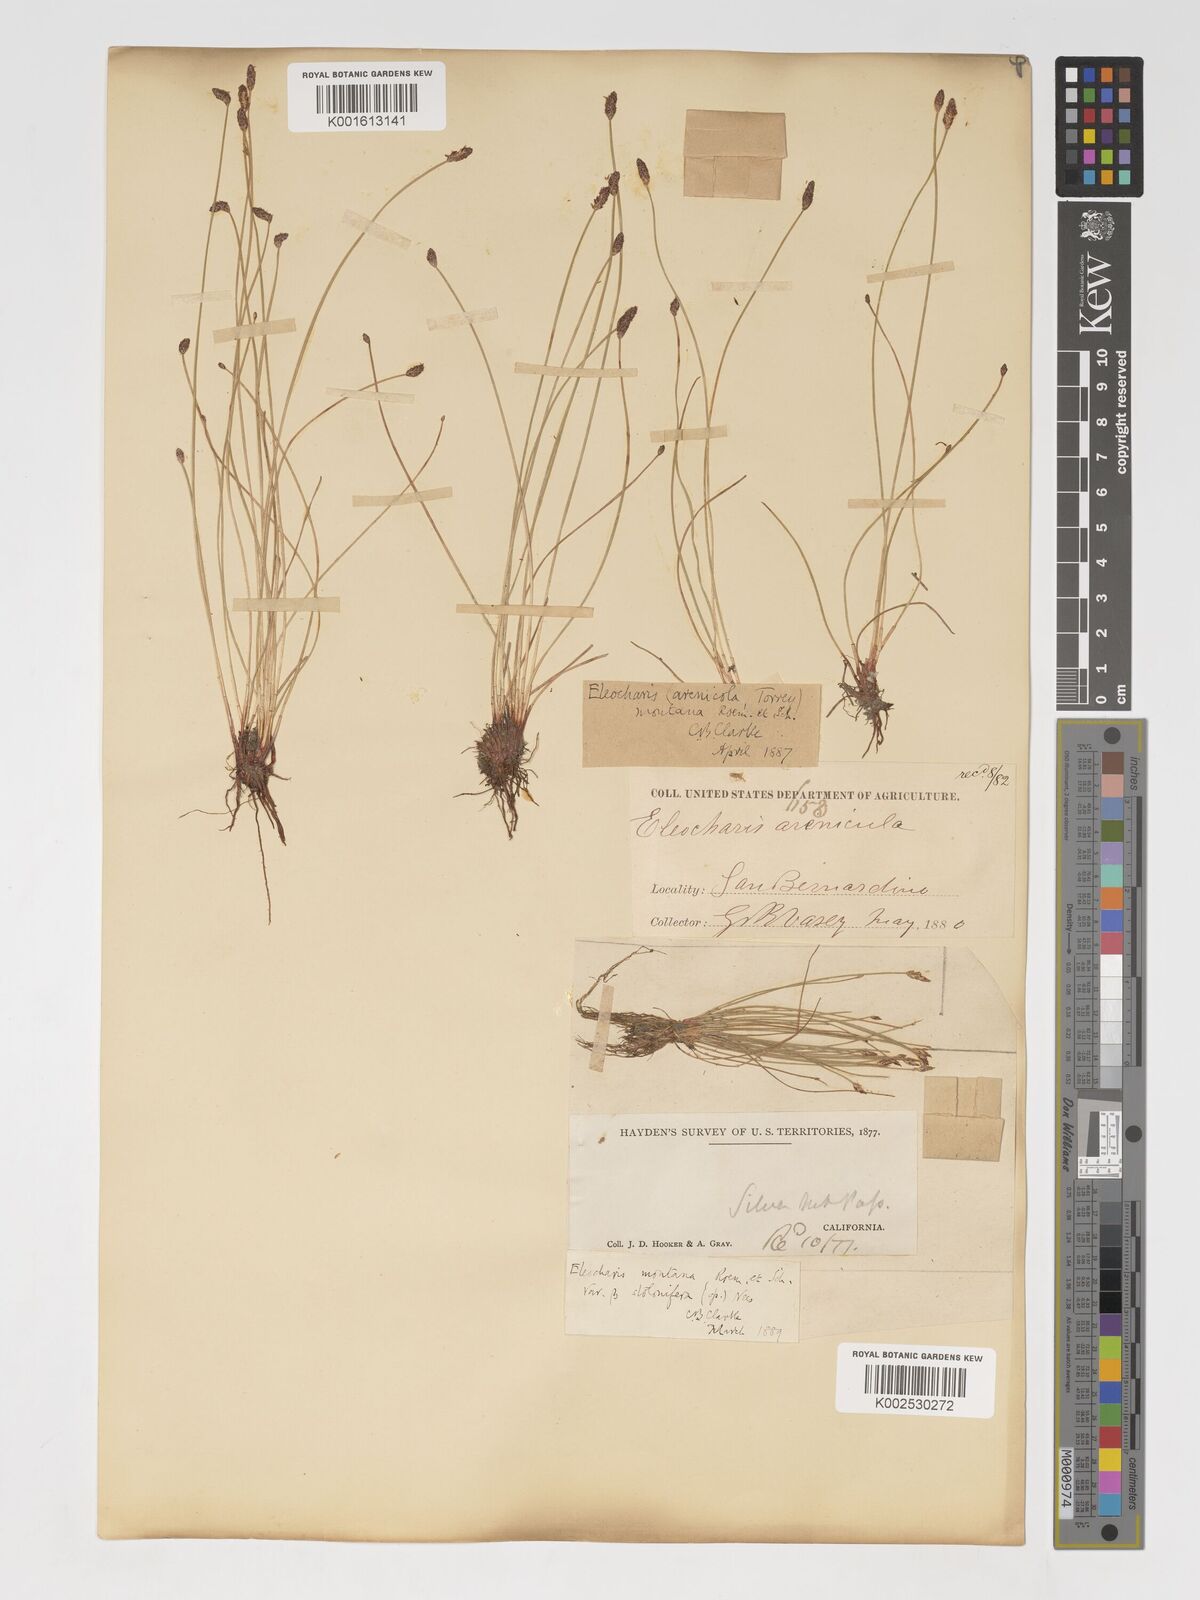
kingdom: Plantae
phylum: Tracheophyta
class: Liliopsida
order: Poales
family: Cyperaceae
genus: Eleocharis
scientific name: Eleocharis montevidensis
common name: Sand spike-rush
